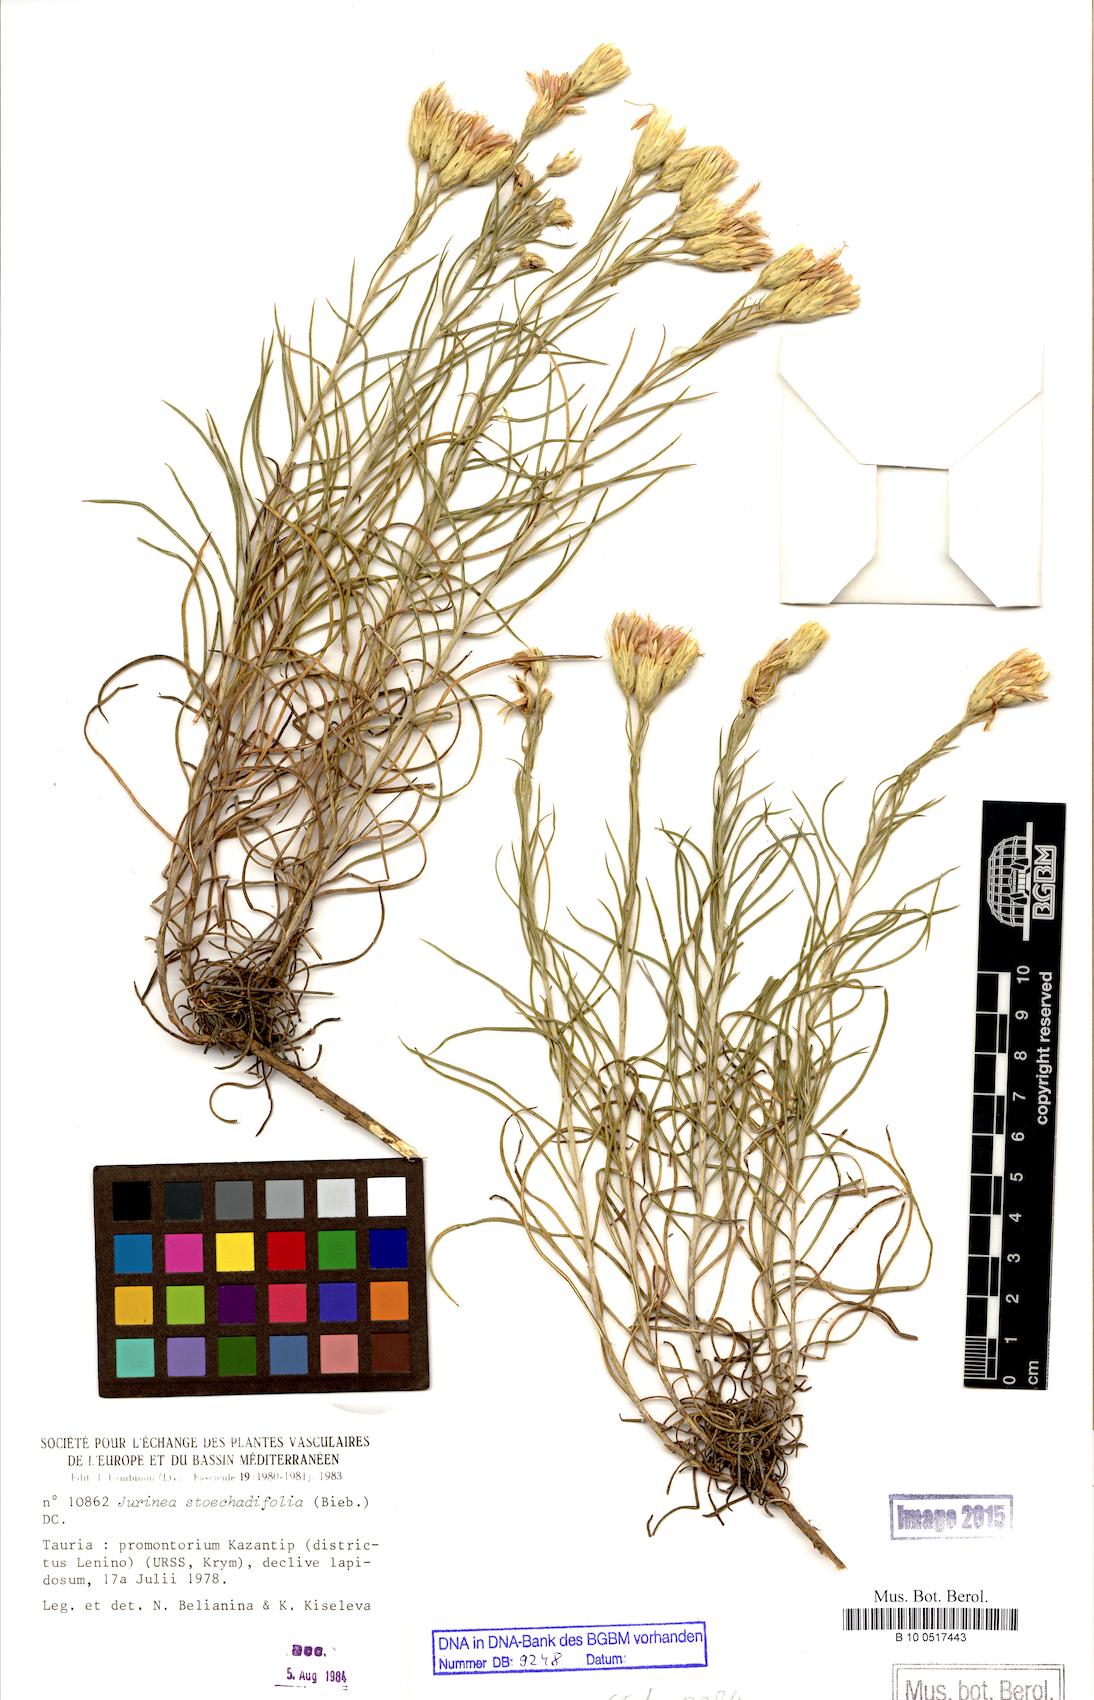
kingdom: Plantae
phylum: Tracheophyta
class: Magnoliopsida
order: Asterales
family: Asteraceae
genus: Jurinea
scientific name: Jurinea stoechadifolia
